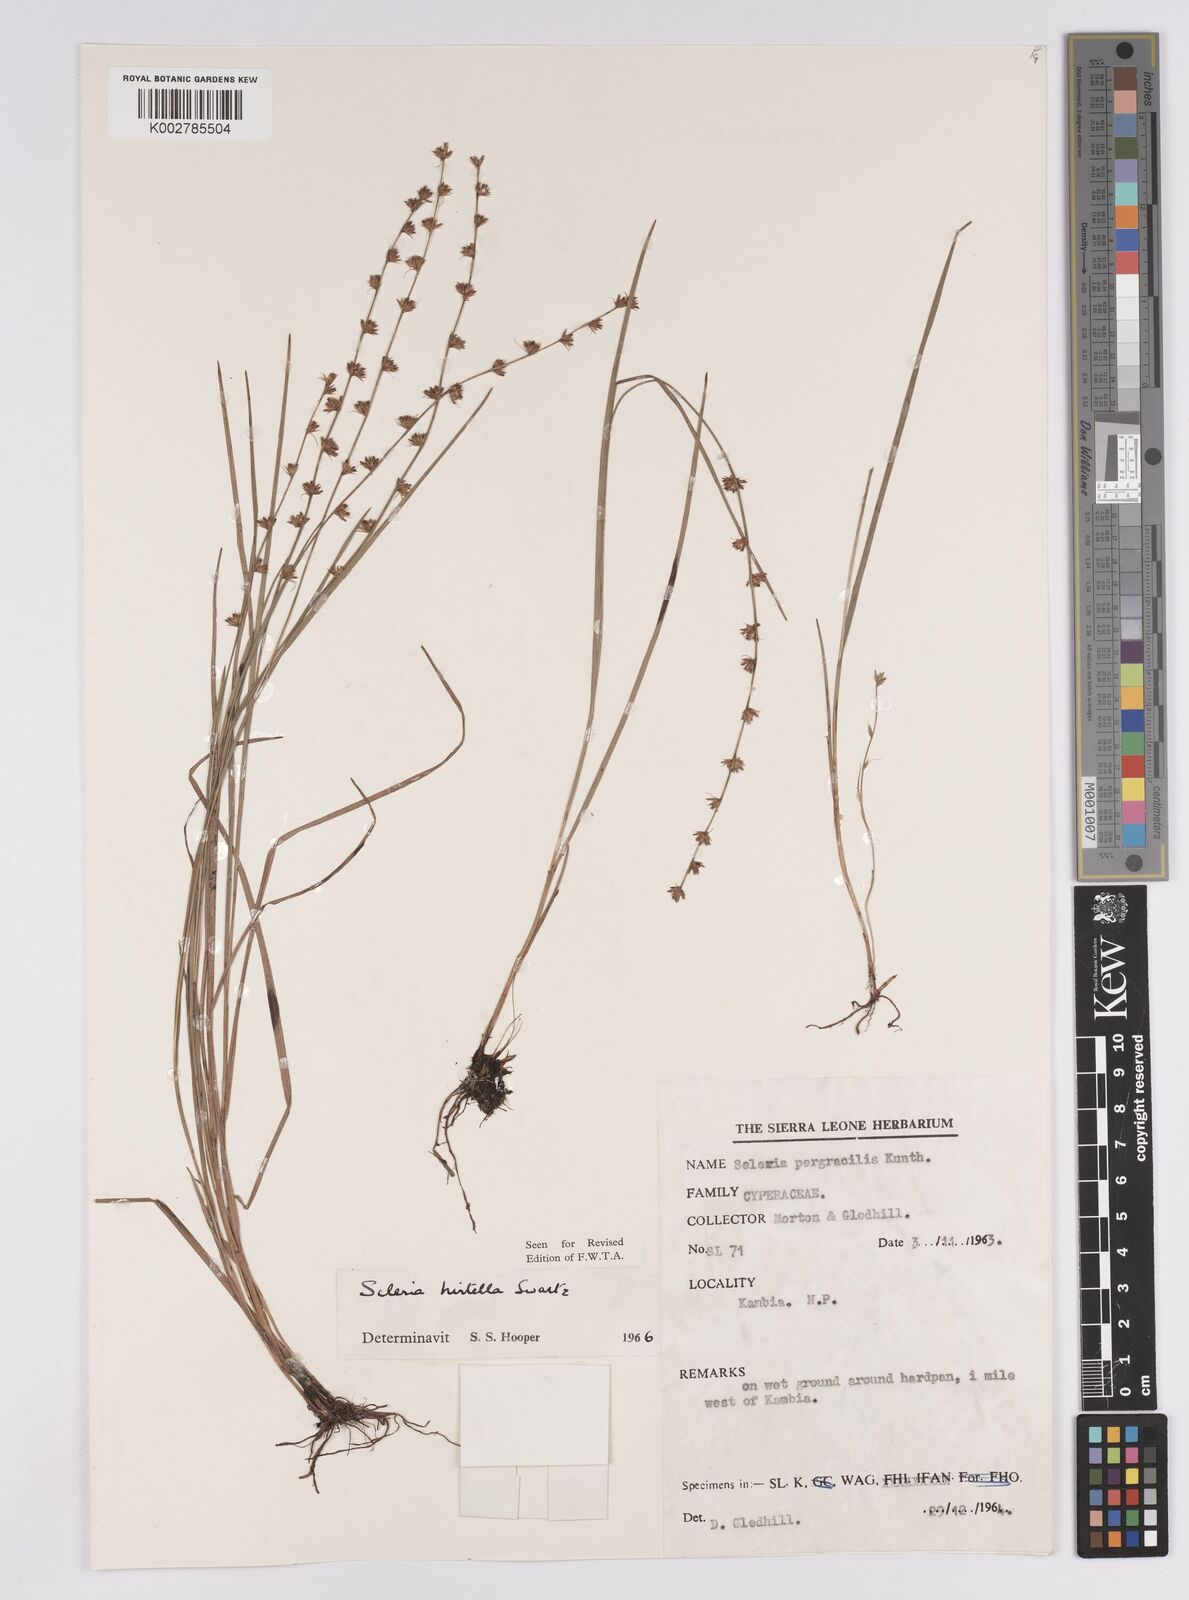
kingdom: Plantae
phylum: Tracheophyta
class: Liliopsida
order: Poales
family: Cyperaceae
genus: Scleria
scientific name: Scleria tricholepis
